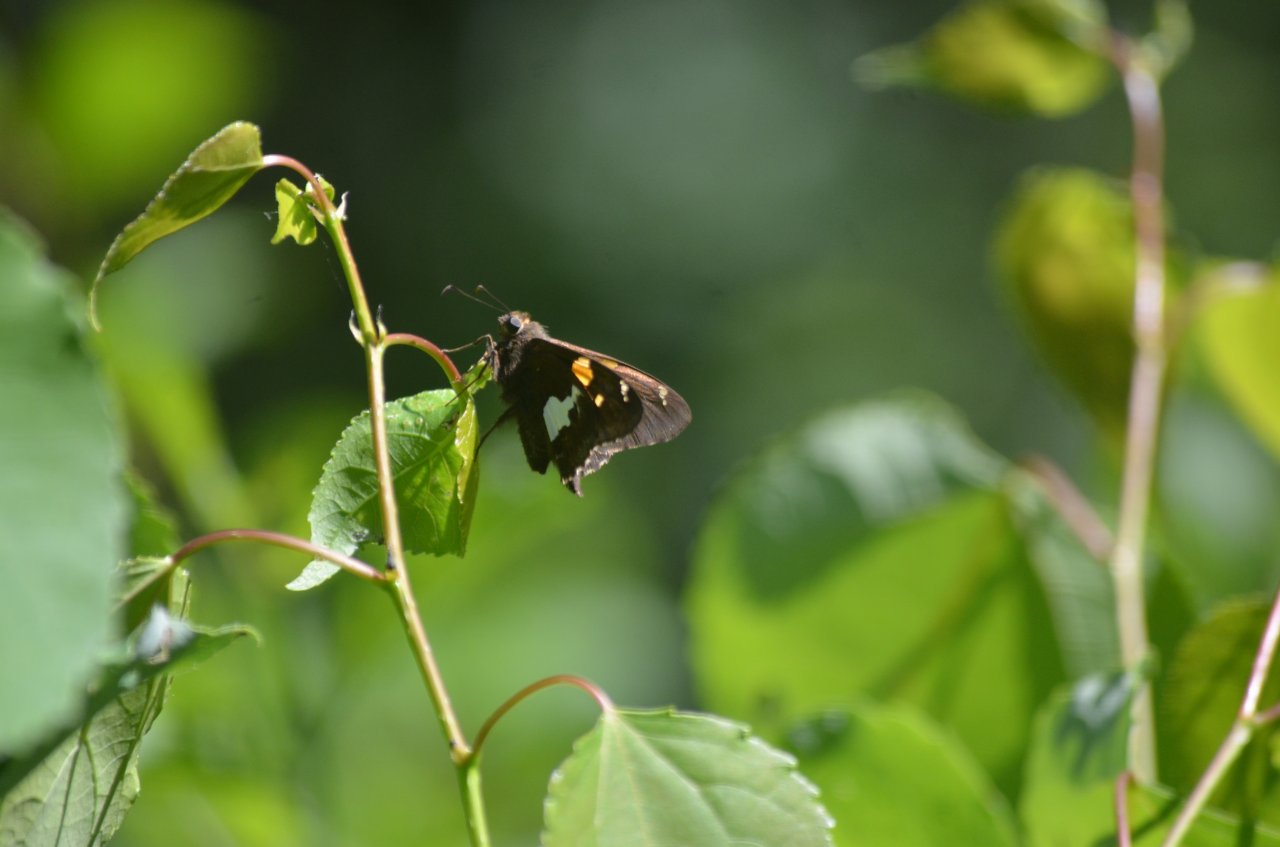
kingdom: Animalia
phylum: Arthropoda
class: Insecta
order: Lepidoptera
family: Hesperiidae
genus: Epargyreus
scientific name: Epargyreus clarus
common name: Silver-spotted Skipper
